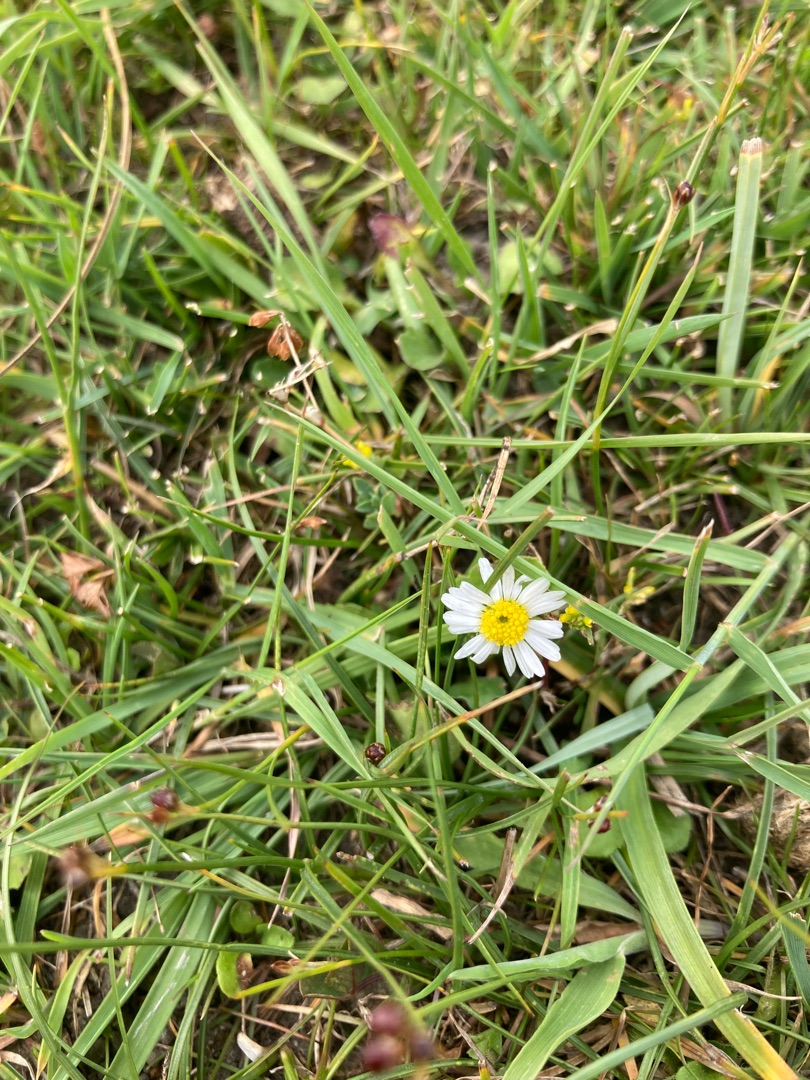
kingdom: Plantae
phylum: Tracheophyta
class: Magnoliopsida
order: Asterales
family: Asteraceae
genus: Bellis
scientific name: Bellis perennis
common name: Tusindfryd
